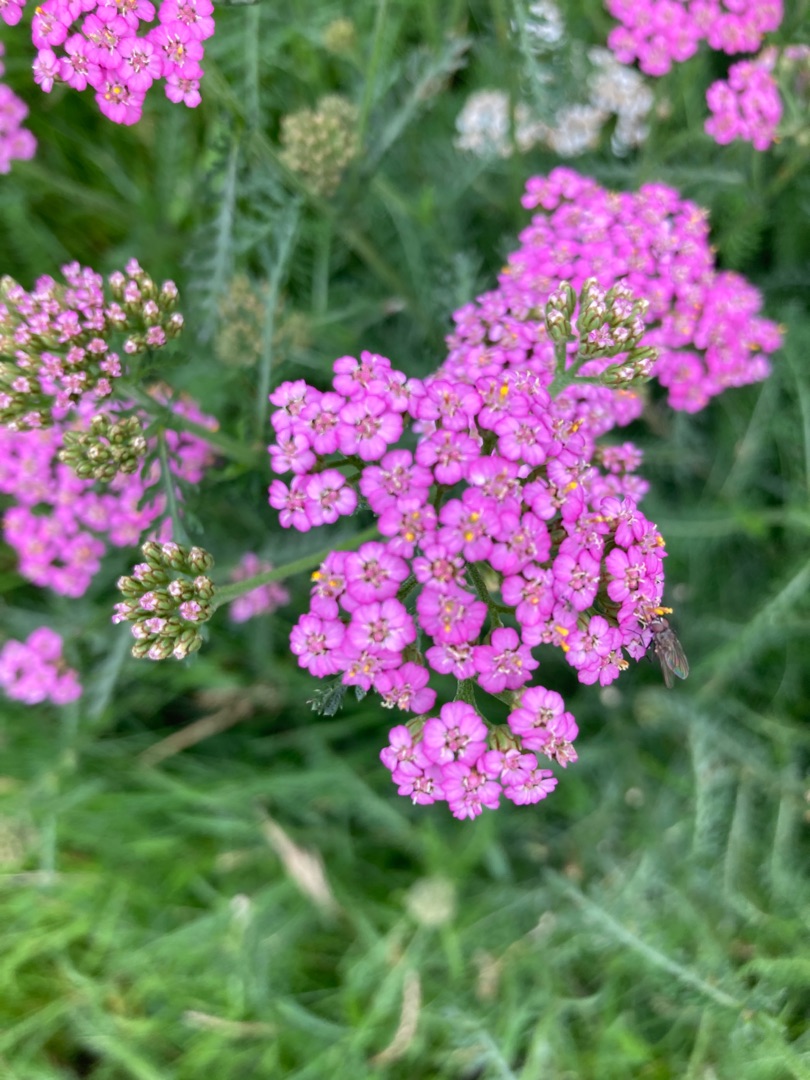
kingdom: Plantae
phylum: Tracheophyta
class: Magnoliopsida
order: Asterales
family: Asteraceae
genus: Achillea
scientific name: Achillea millefolium
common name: Almindelig røllike
